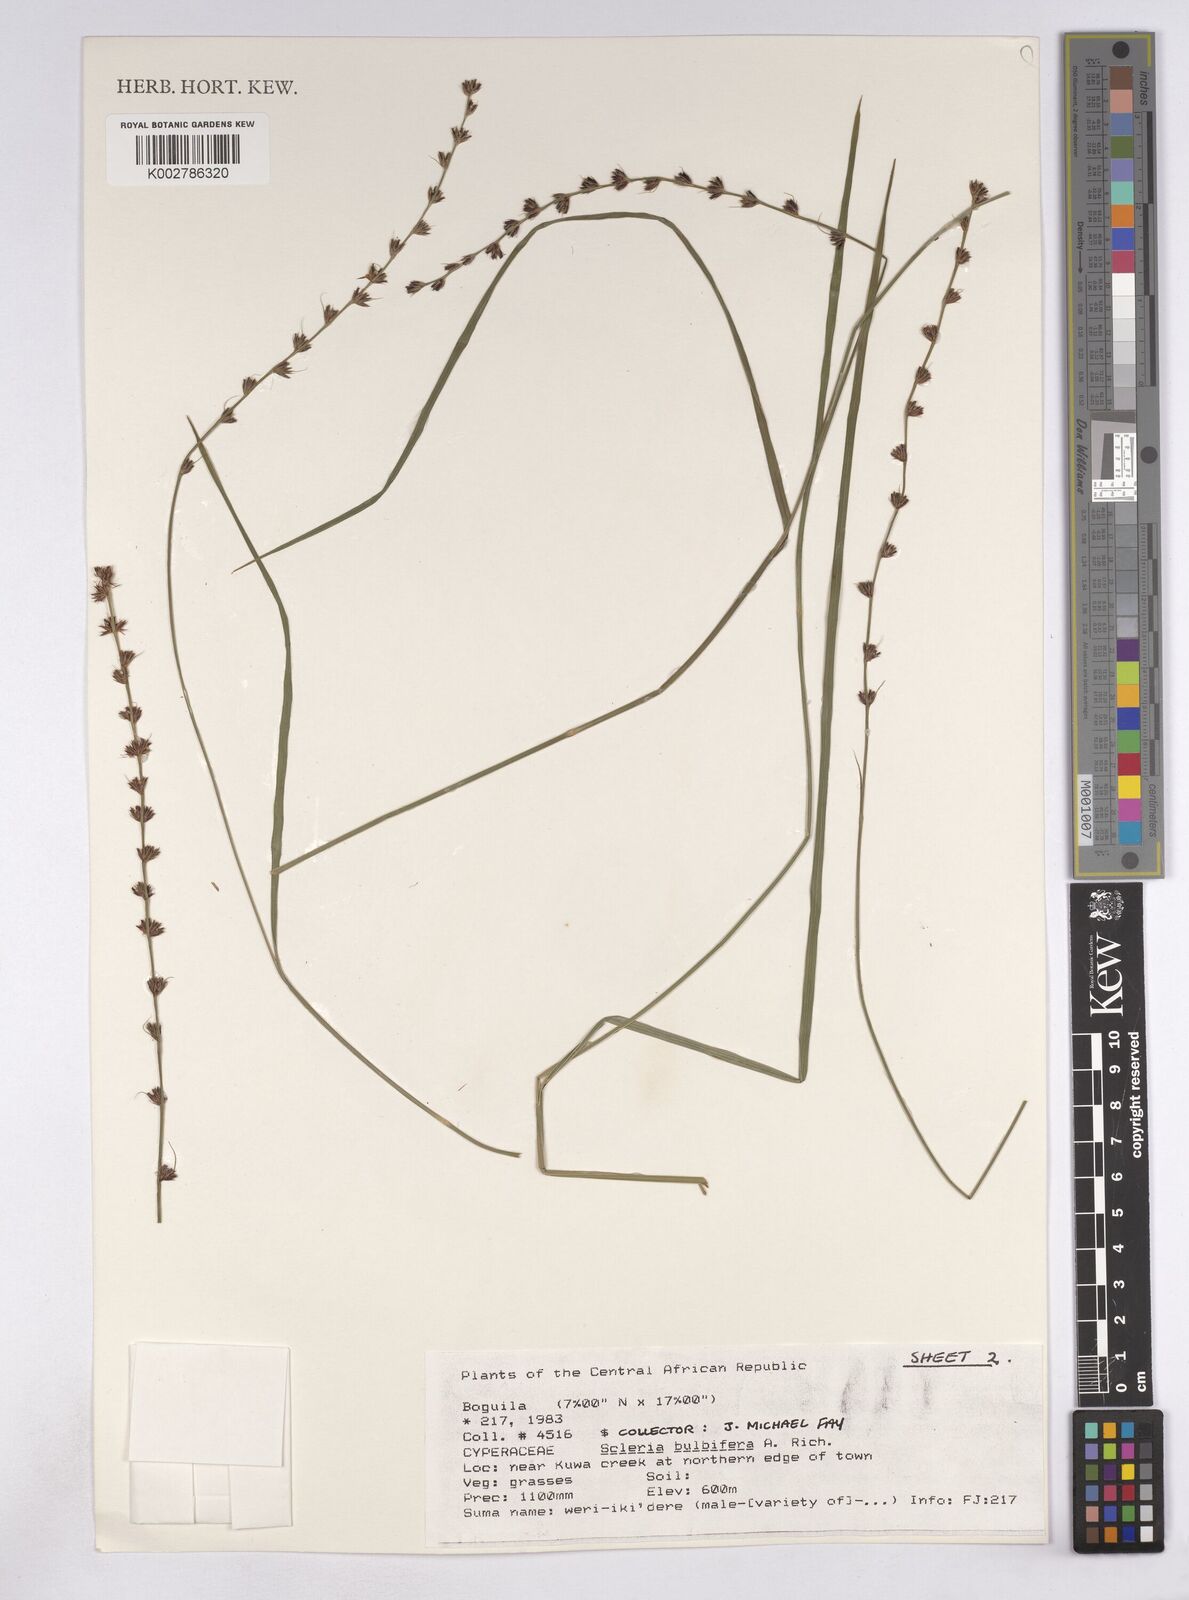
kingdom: Plantae
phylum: Tracheophyta
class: Liliopsida
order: Poales
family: Cyperaceae
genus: Scleria
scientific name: Scleria bulbifera
